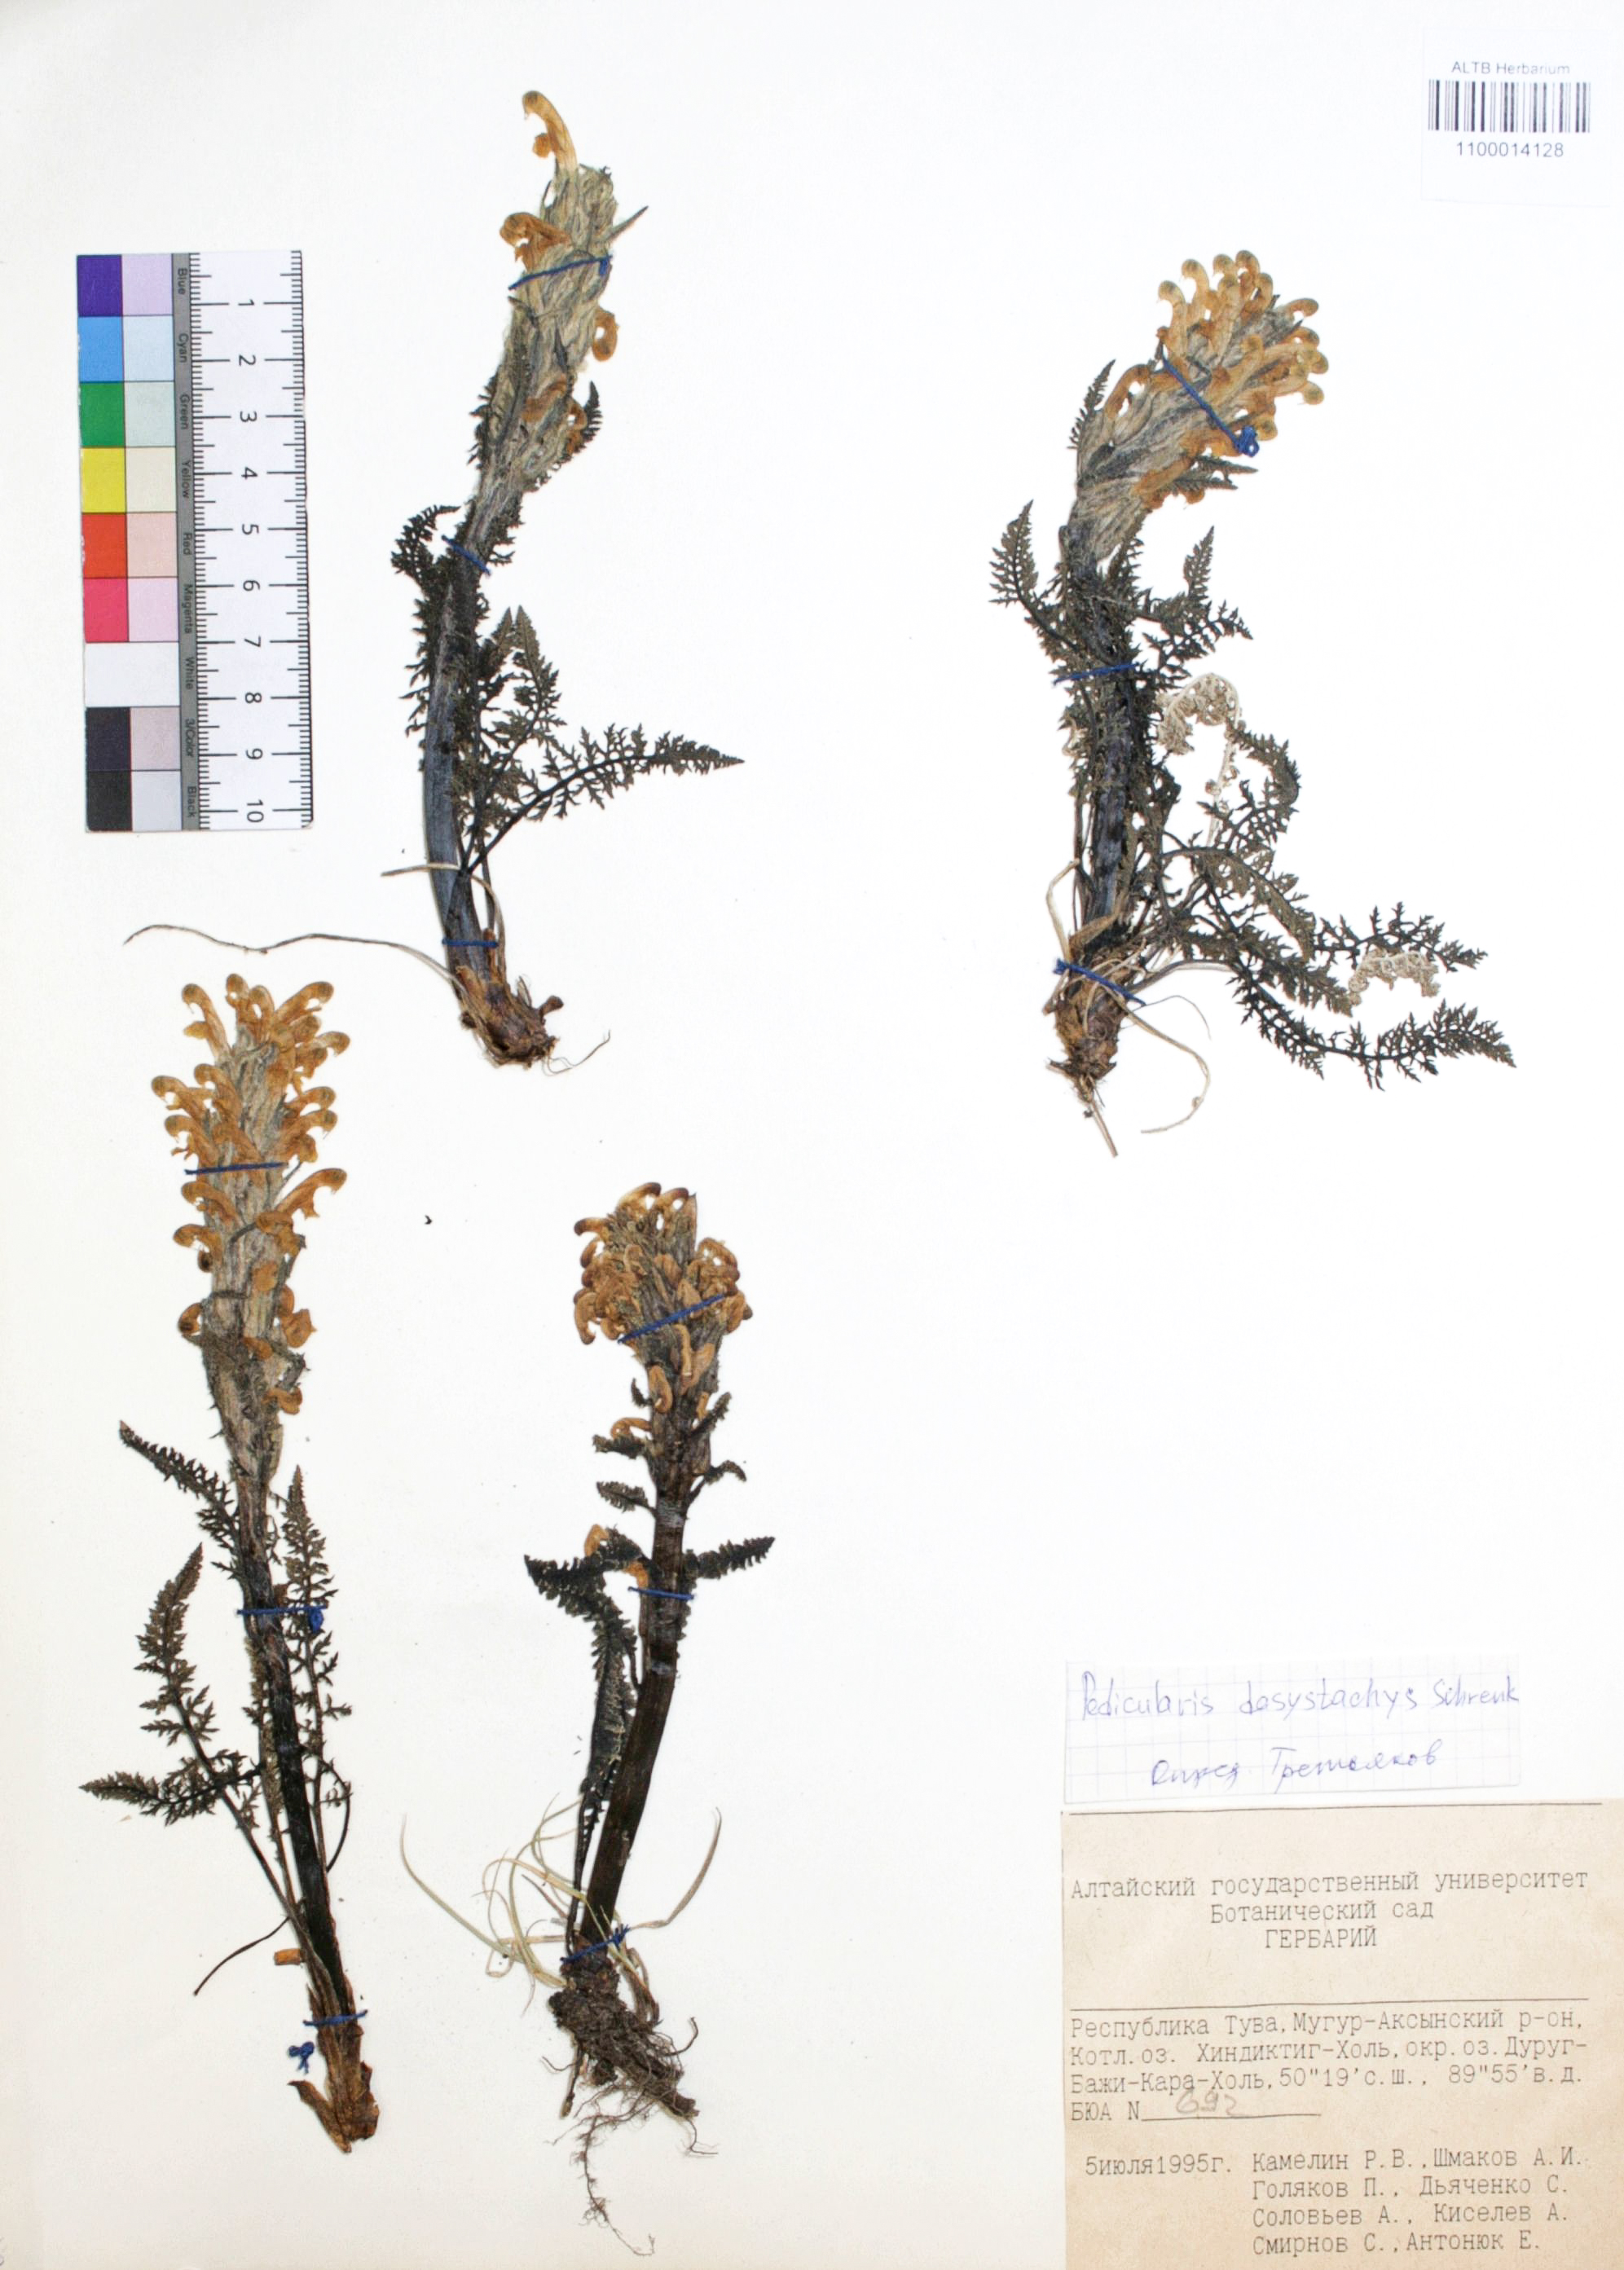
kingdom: Plantae
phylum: Tracheophyta
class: Magnoliopsida
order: Lamiales
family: Orobanchaceae
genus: Pedicularis
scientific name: Pedicularis dasystachys
